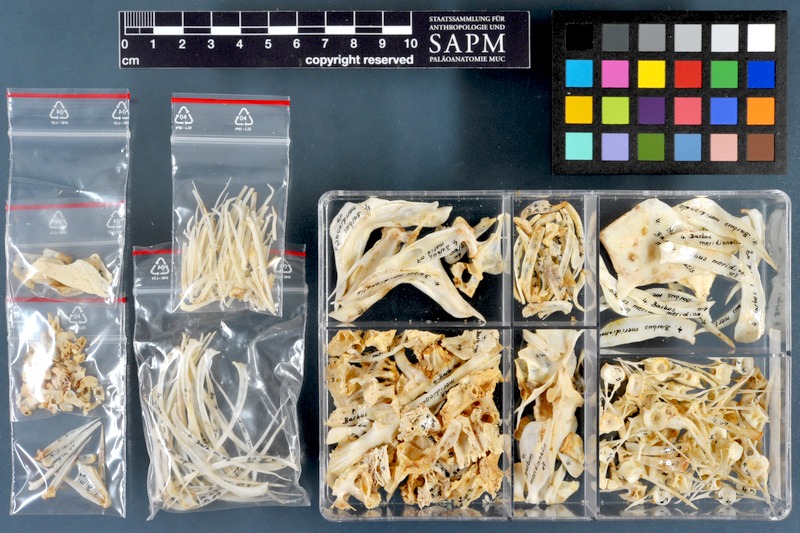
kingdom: Animalia
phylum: Chordata
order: Cypriniformes
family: Cyprinidae
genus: Barbus
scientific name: Barbus meridionalis
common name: Mediterranean barbel
